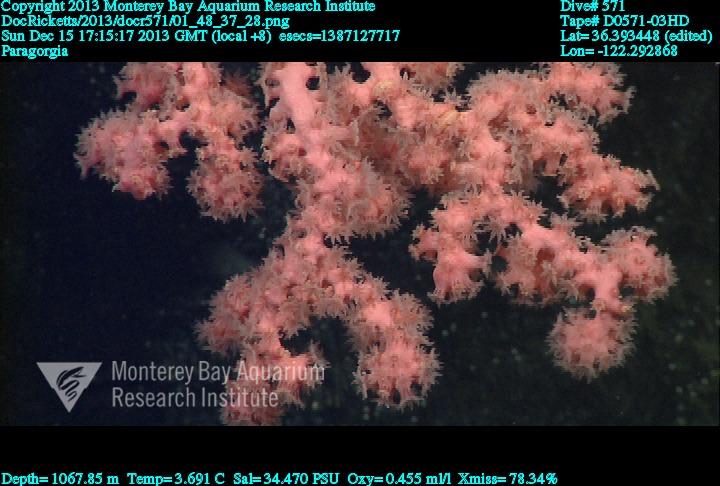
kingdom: Animalia
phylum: Cnidaria
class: Anthozoa
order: Scleralcyonacea
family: Coralliidae
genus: Paragorgia
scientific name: Paragorgia
